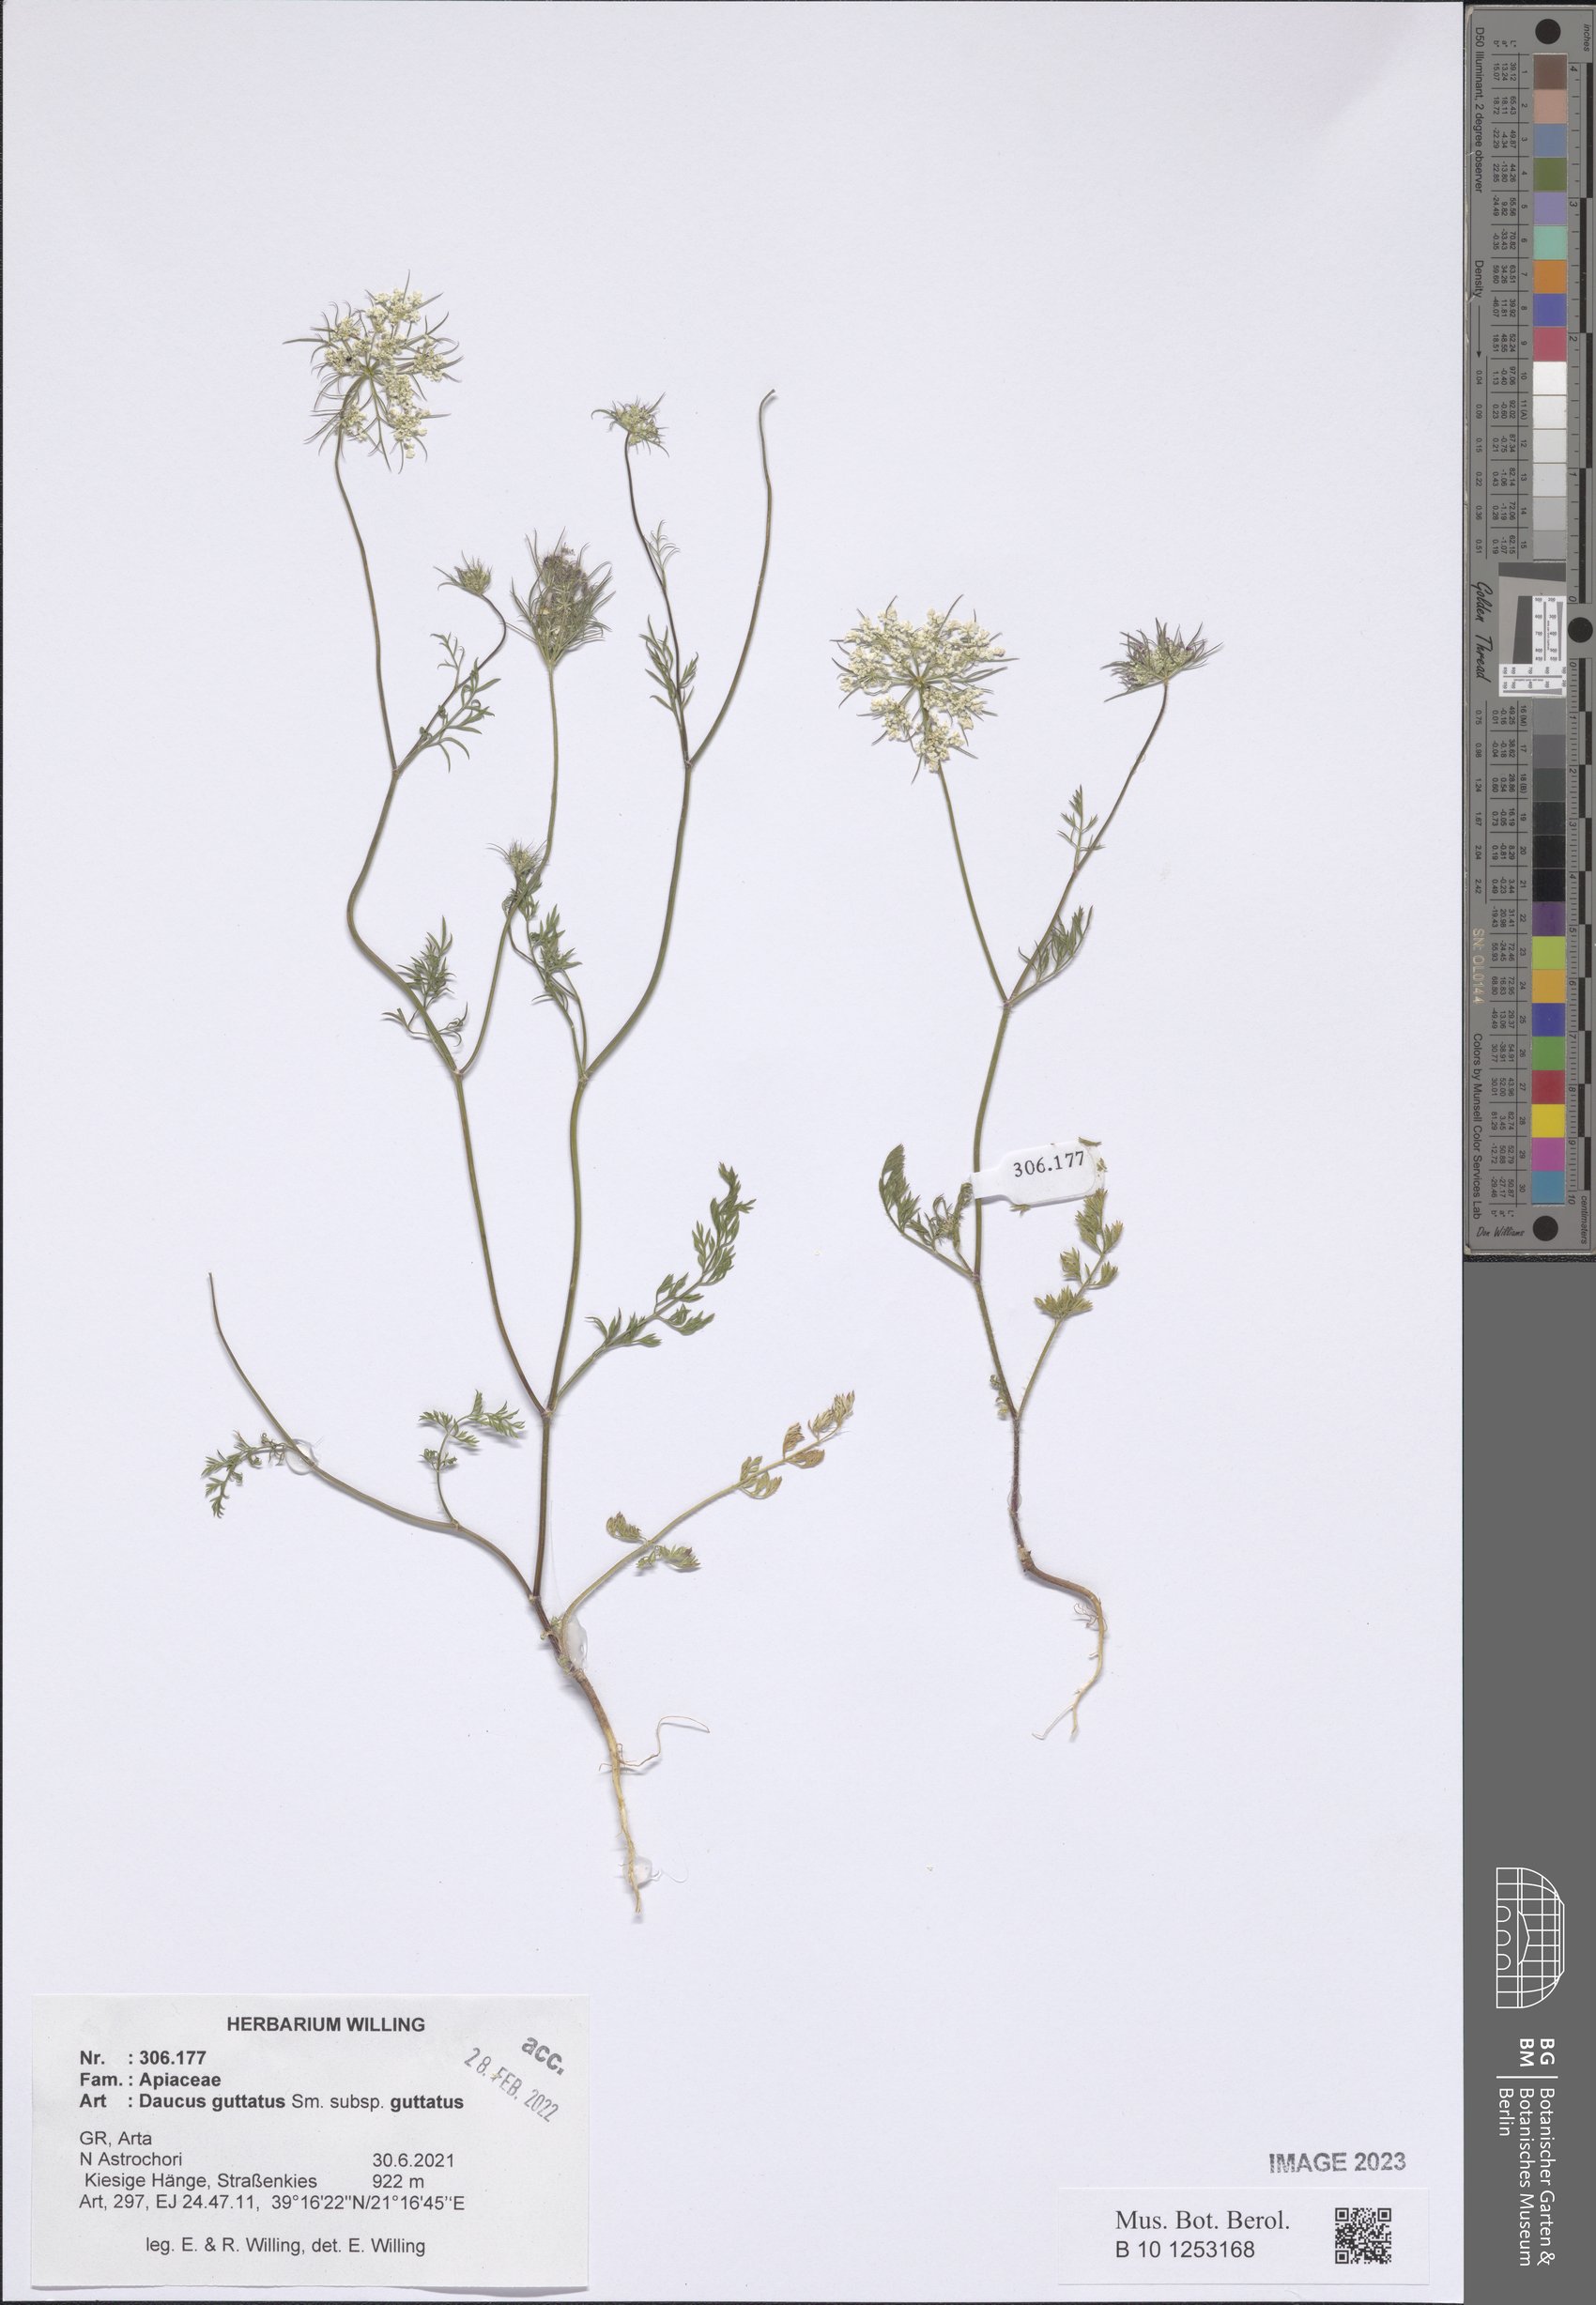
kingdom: Plantae
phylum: Tracheophyta
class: Magnoliopsida
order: Apiales
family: Apiaceae
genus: Daucus
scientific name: Daucus guttatus
